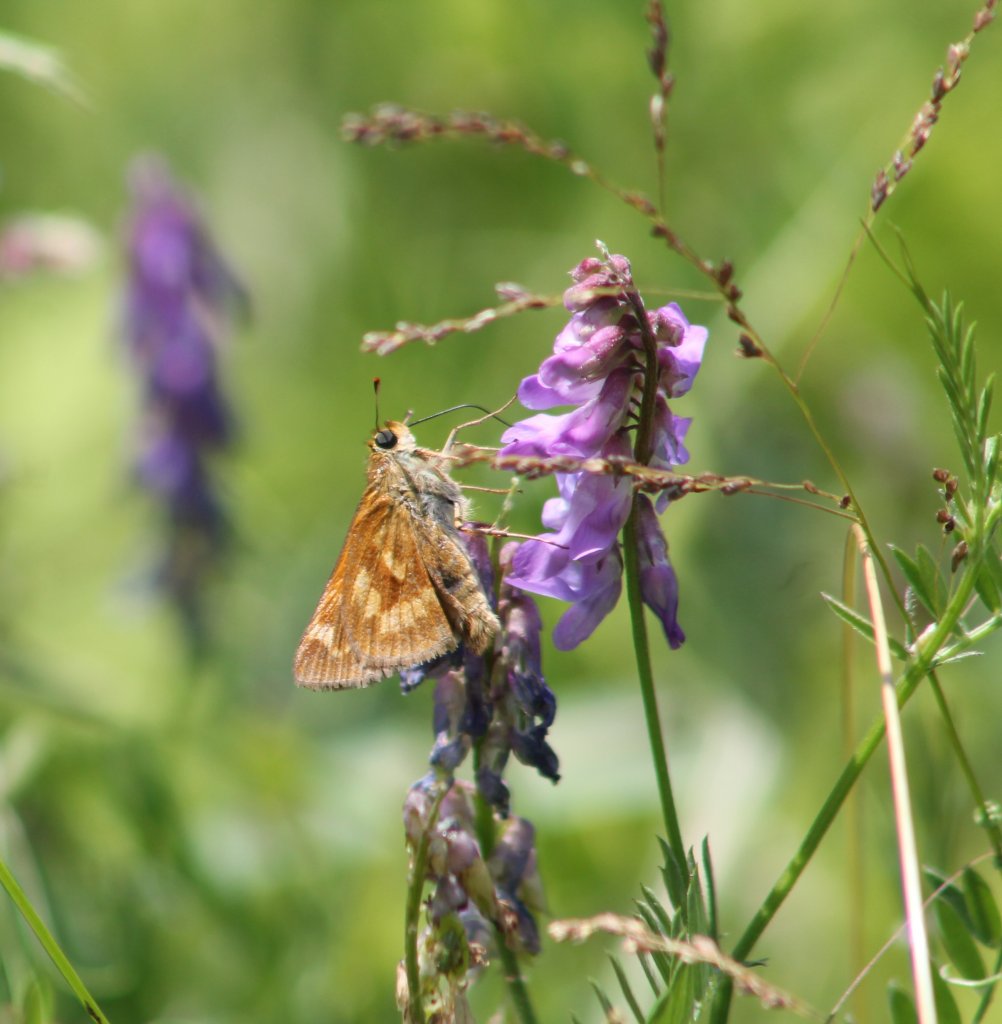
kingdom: Animalia
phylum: Arthropoda
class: Insecta
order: Lepidoptera
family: Hesperiidae
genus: Polites
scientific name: Polites
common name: Long Dash Skipper
